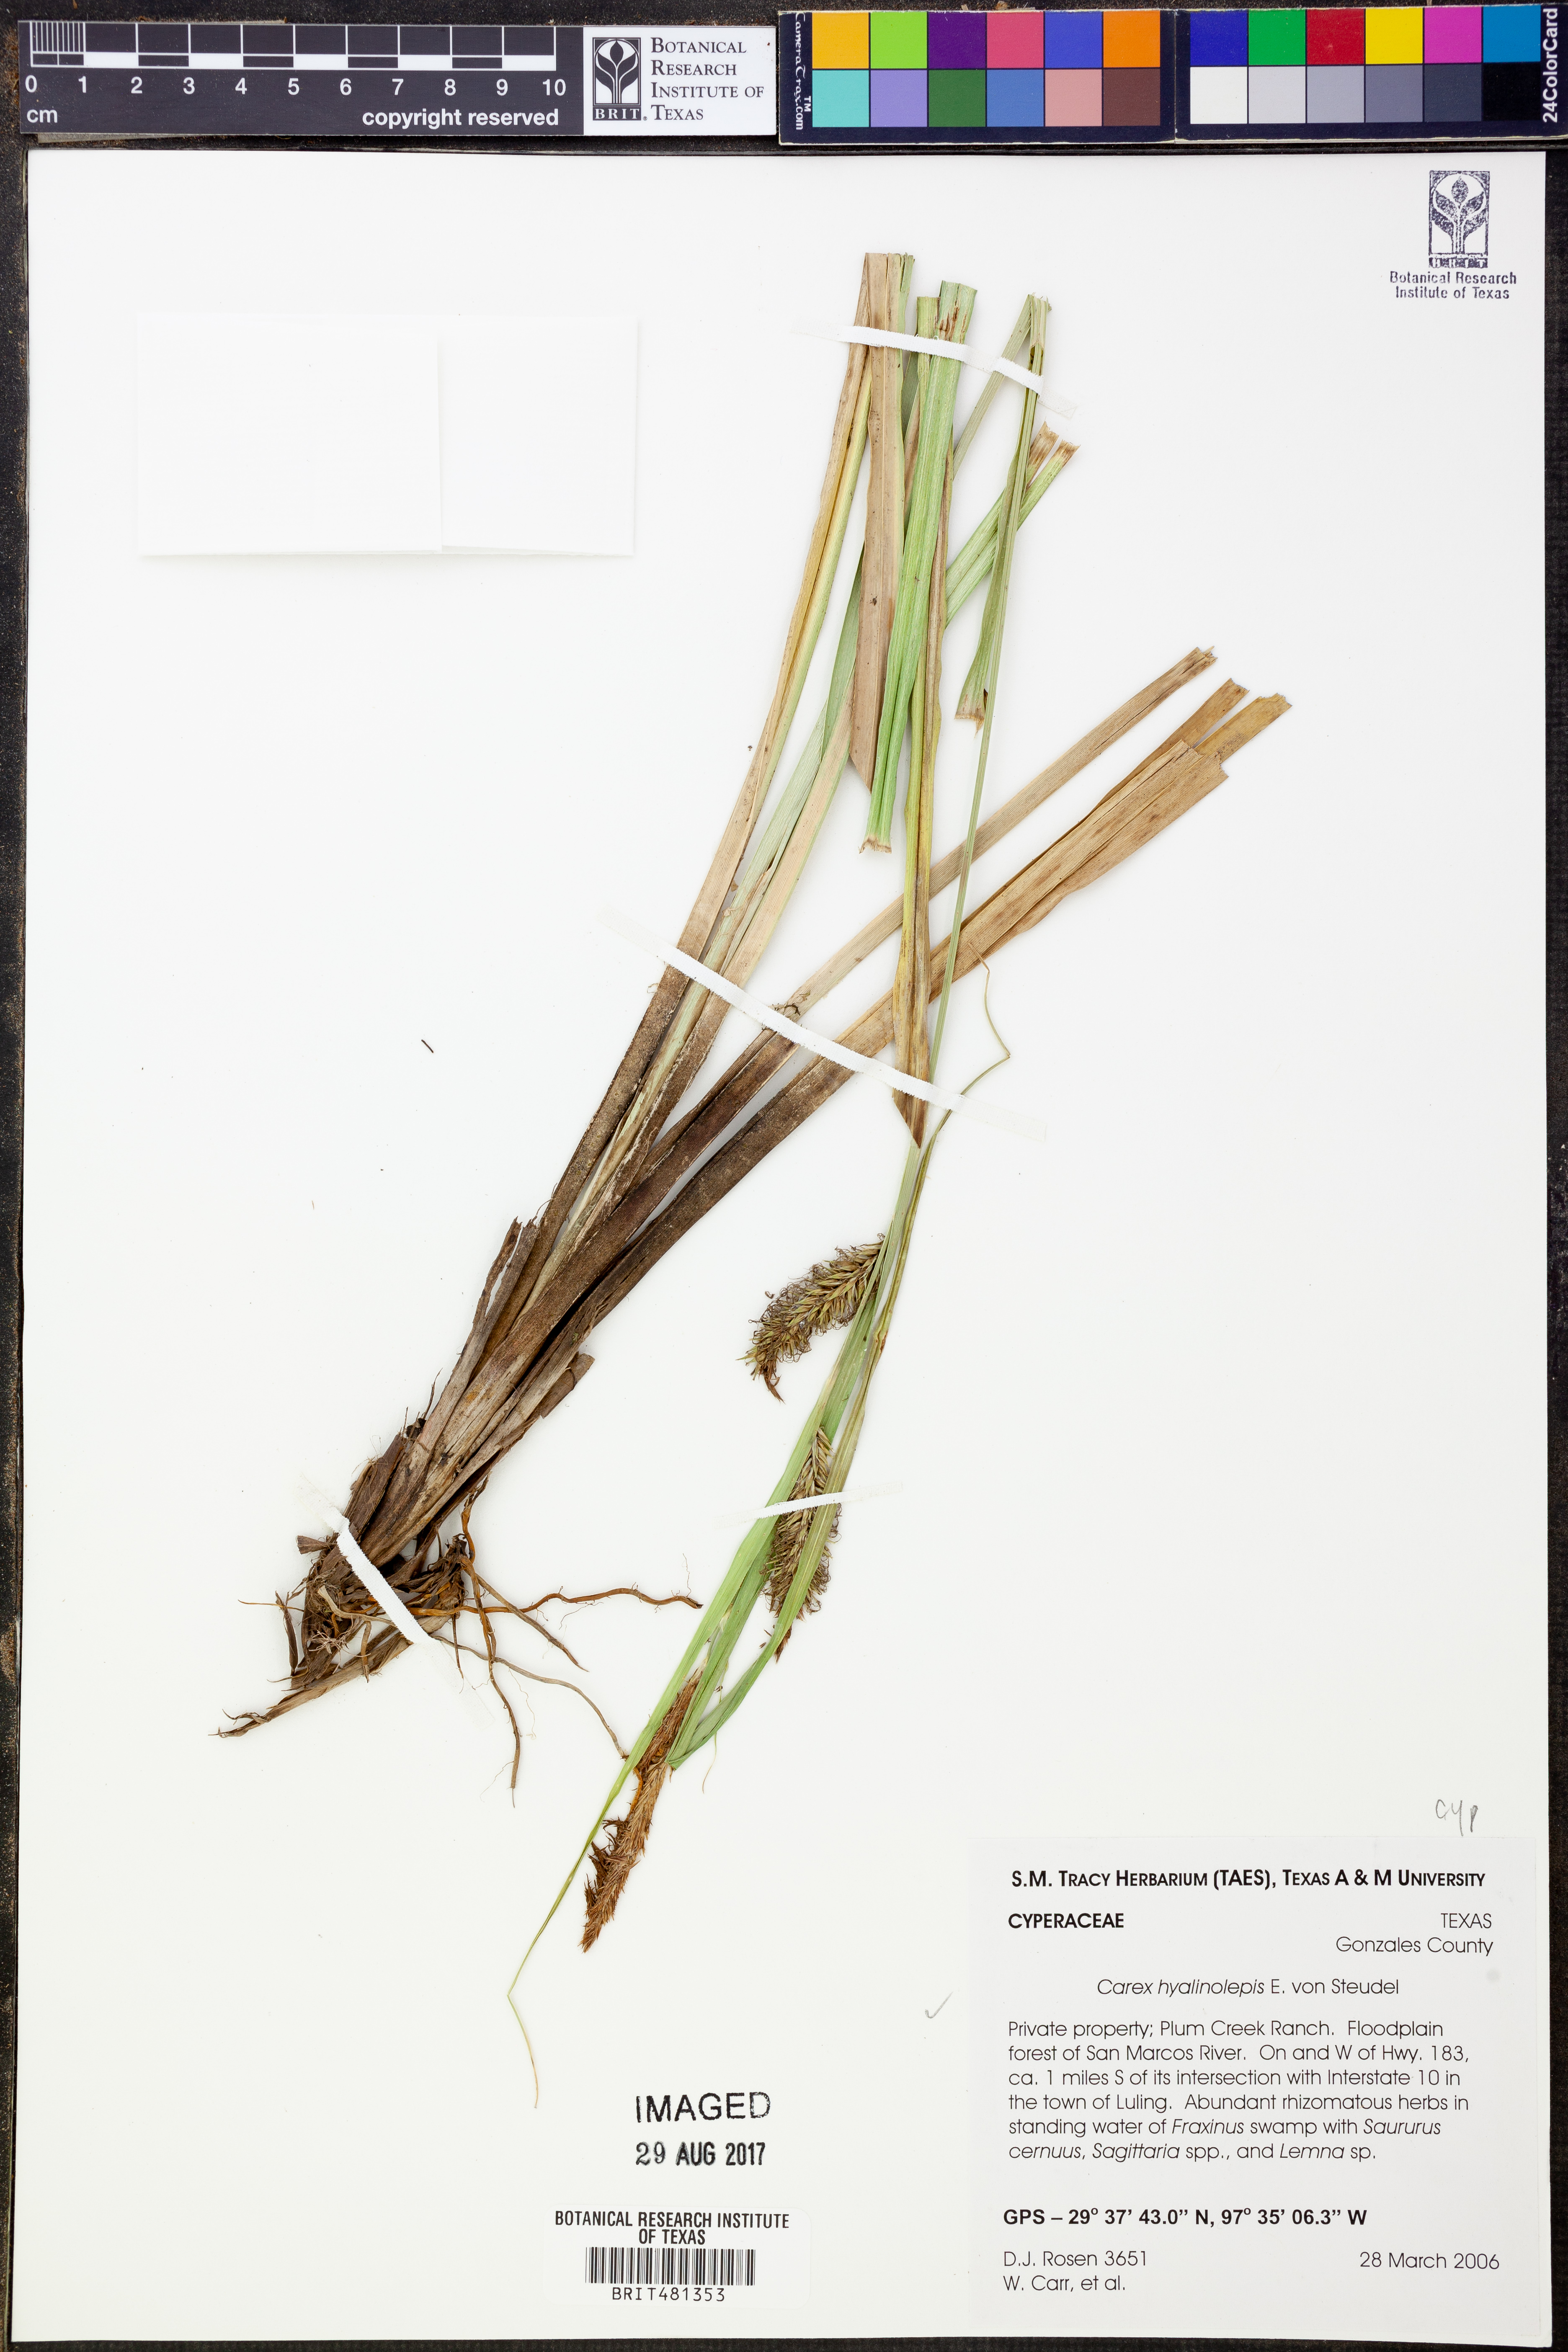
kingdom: Plantae
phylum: Tracheophyta
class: Liliopsida
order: Poales
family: Cyperaceae
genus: Carex
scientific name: Carex hyalinolepis
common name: Shoreline sedge
